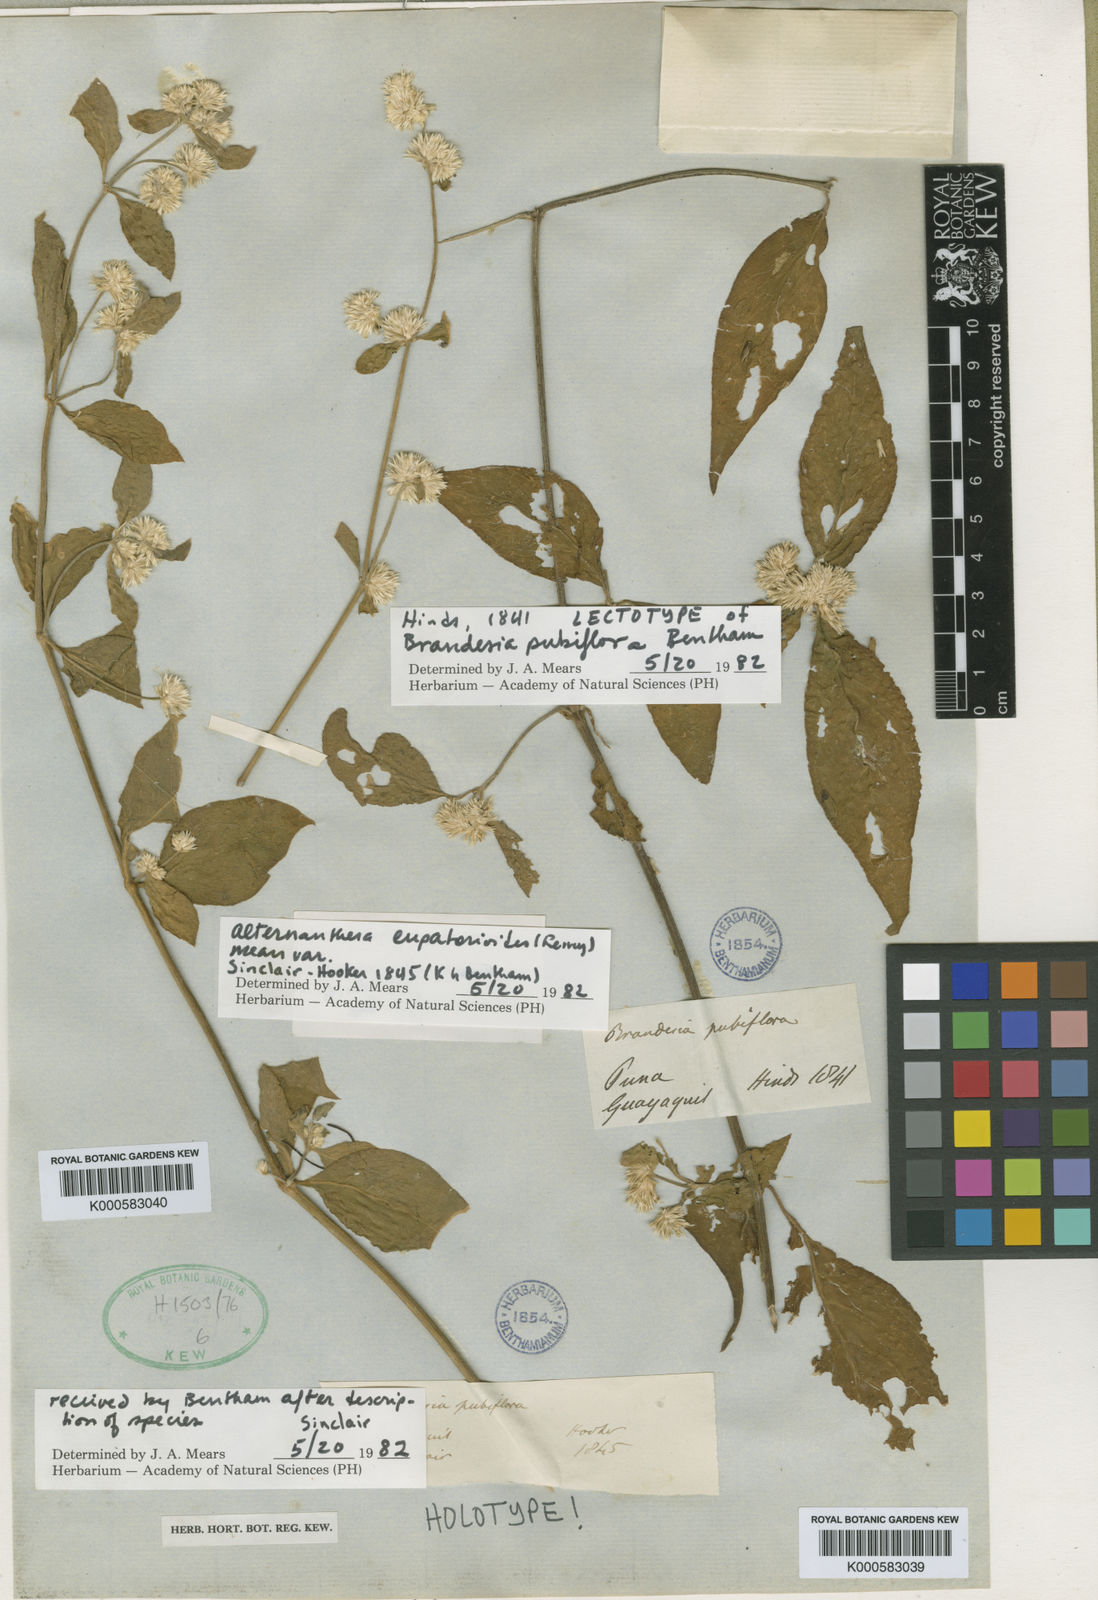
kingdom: Plantae
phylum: Tracheophyta
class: Magnoliopsida
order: Caryophyllales
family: Amaranthaceae
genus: Alternanthera
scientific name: Alternanthera pubiflora
